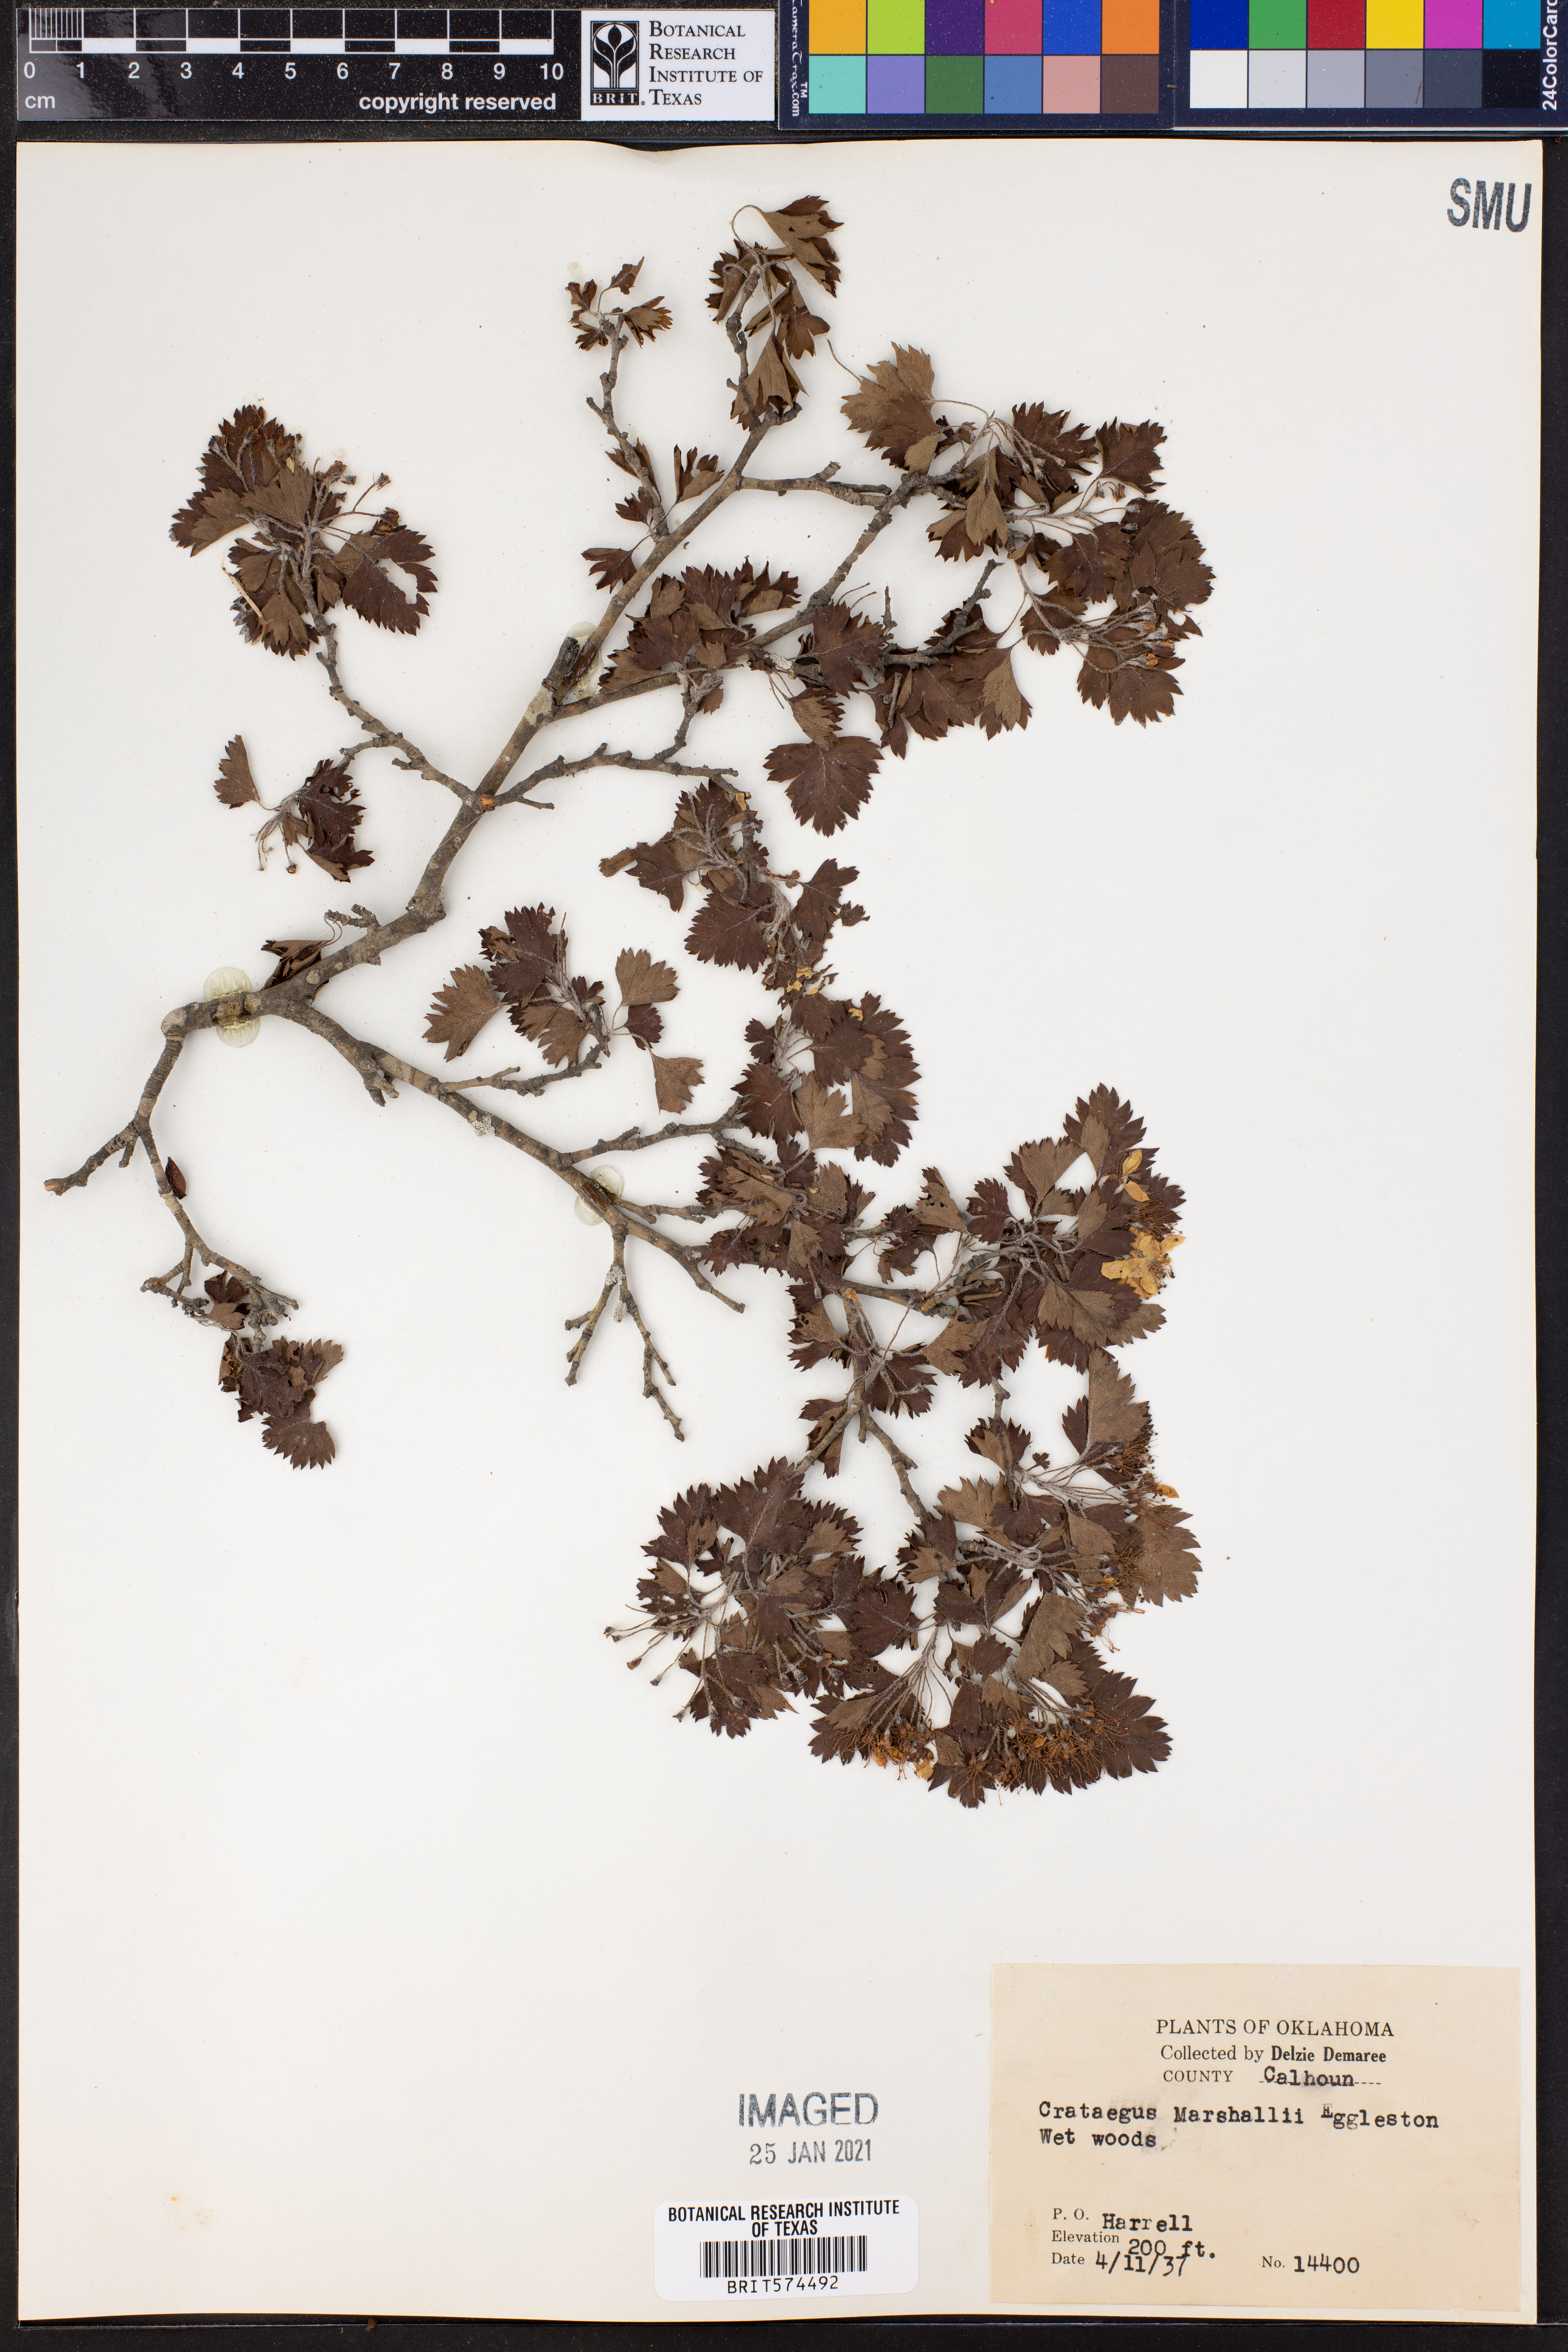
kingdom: Plantae
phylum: Tracheophyta
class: Magnoliopsida
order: Rosales
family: Rosaceae
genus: Crataegus
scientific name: Crataegus marshallii
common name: Parsley-hawthorn
